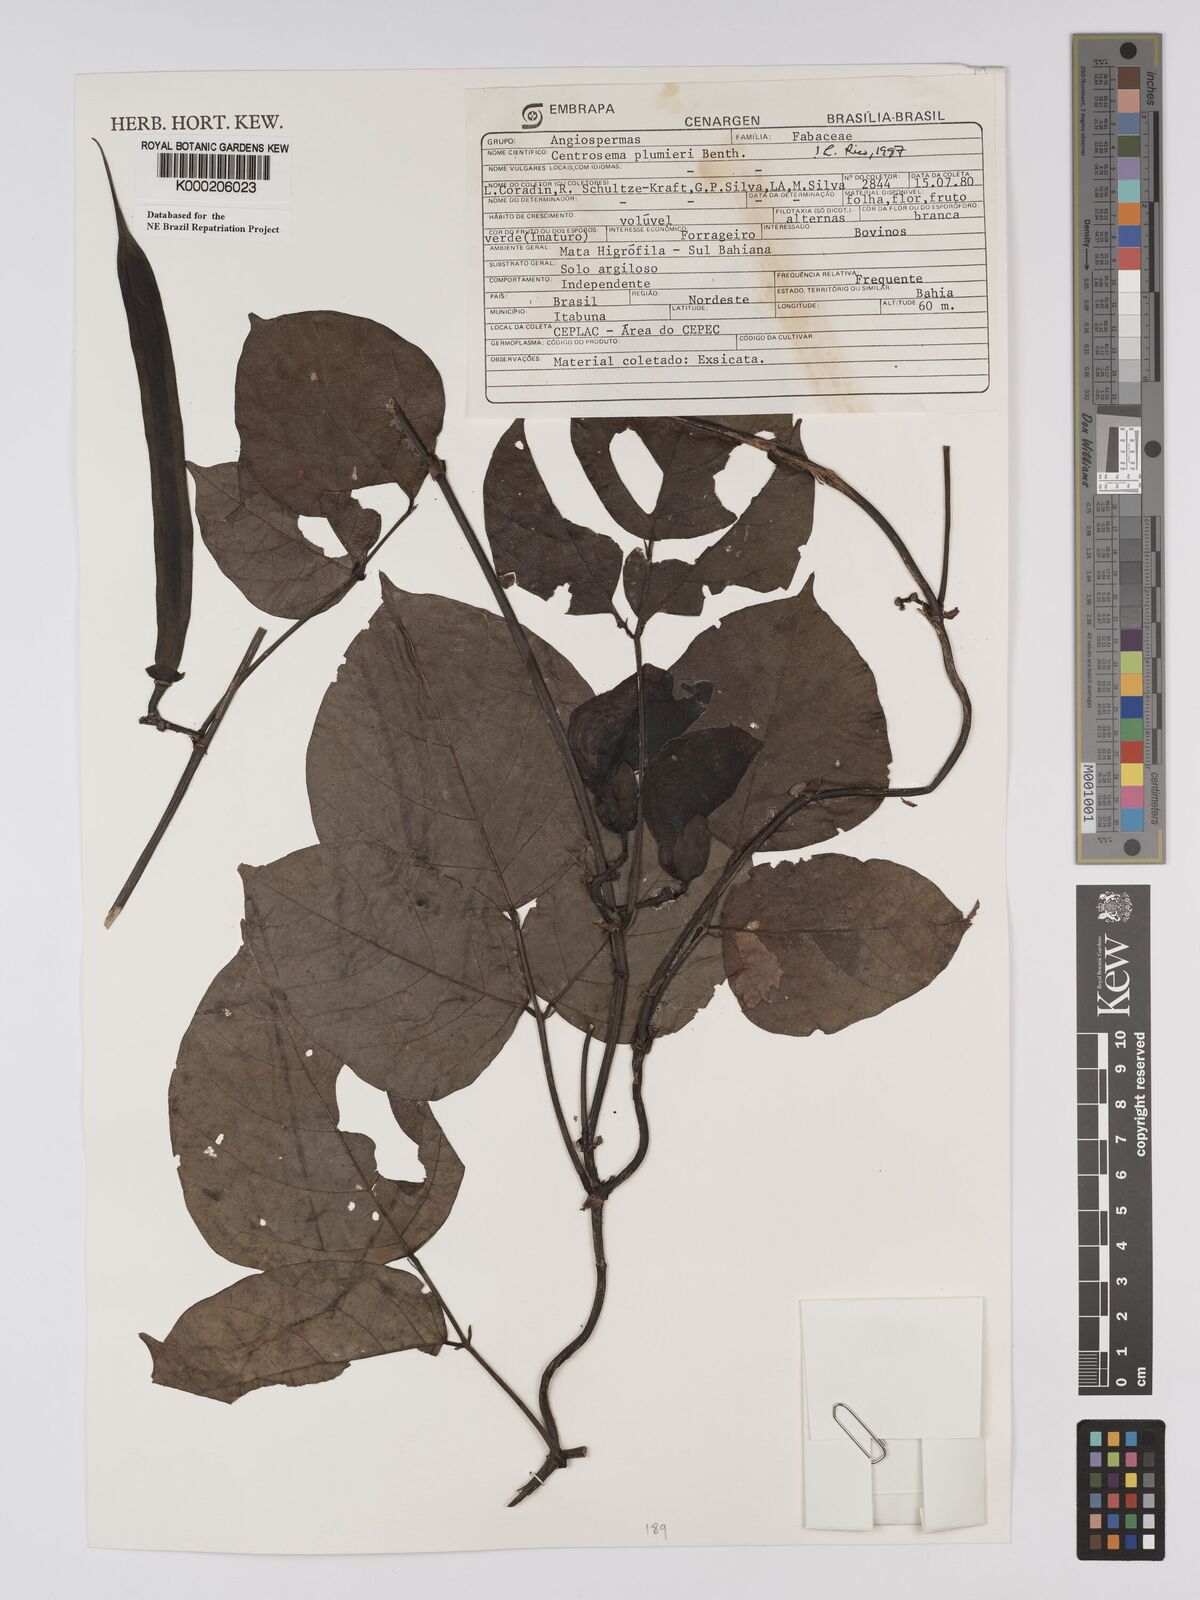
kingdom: Plantae
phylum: Tracheophyta
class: Magnoliopsida
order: Fabales
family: Fabaceae
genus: Centrosema
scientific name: Centrosema plumieri
